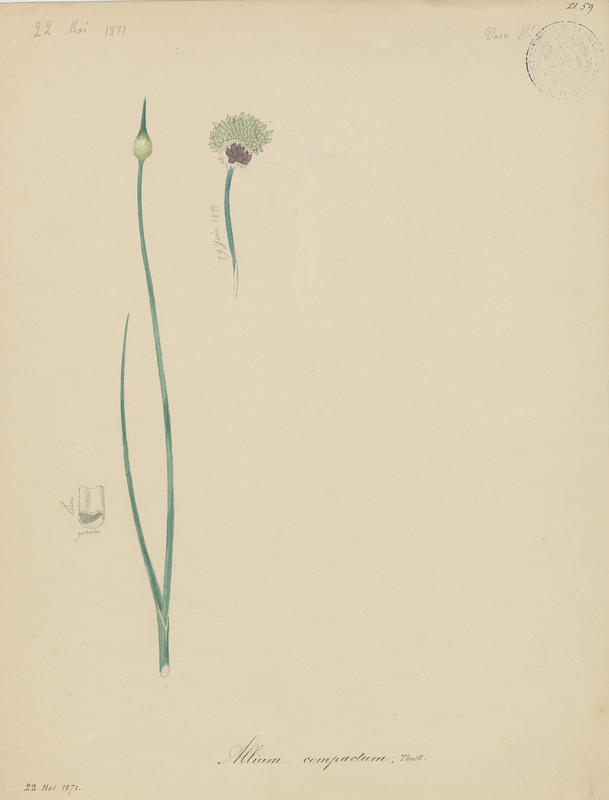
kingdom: Plantae
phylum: Tracheophyta
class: Liliopsida
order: Asparagales
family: Amaryllidaceae
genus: Allium
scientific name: Allium vineale
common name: Crow garlic
